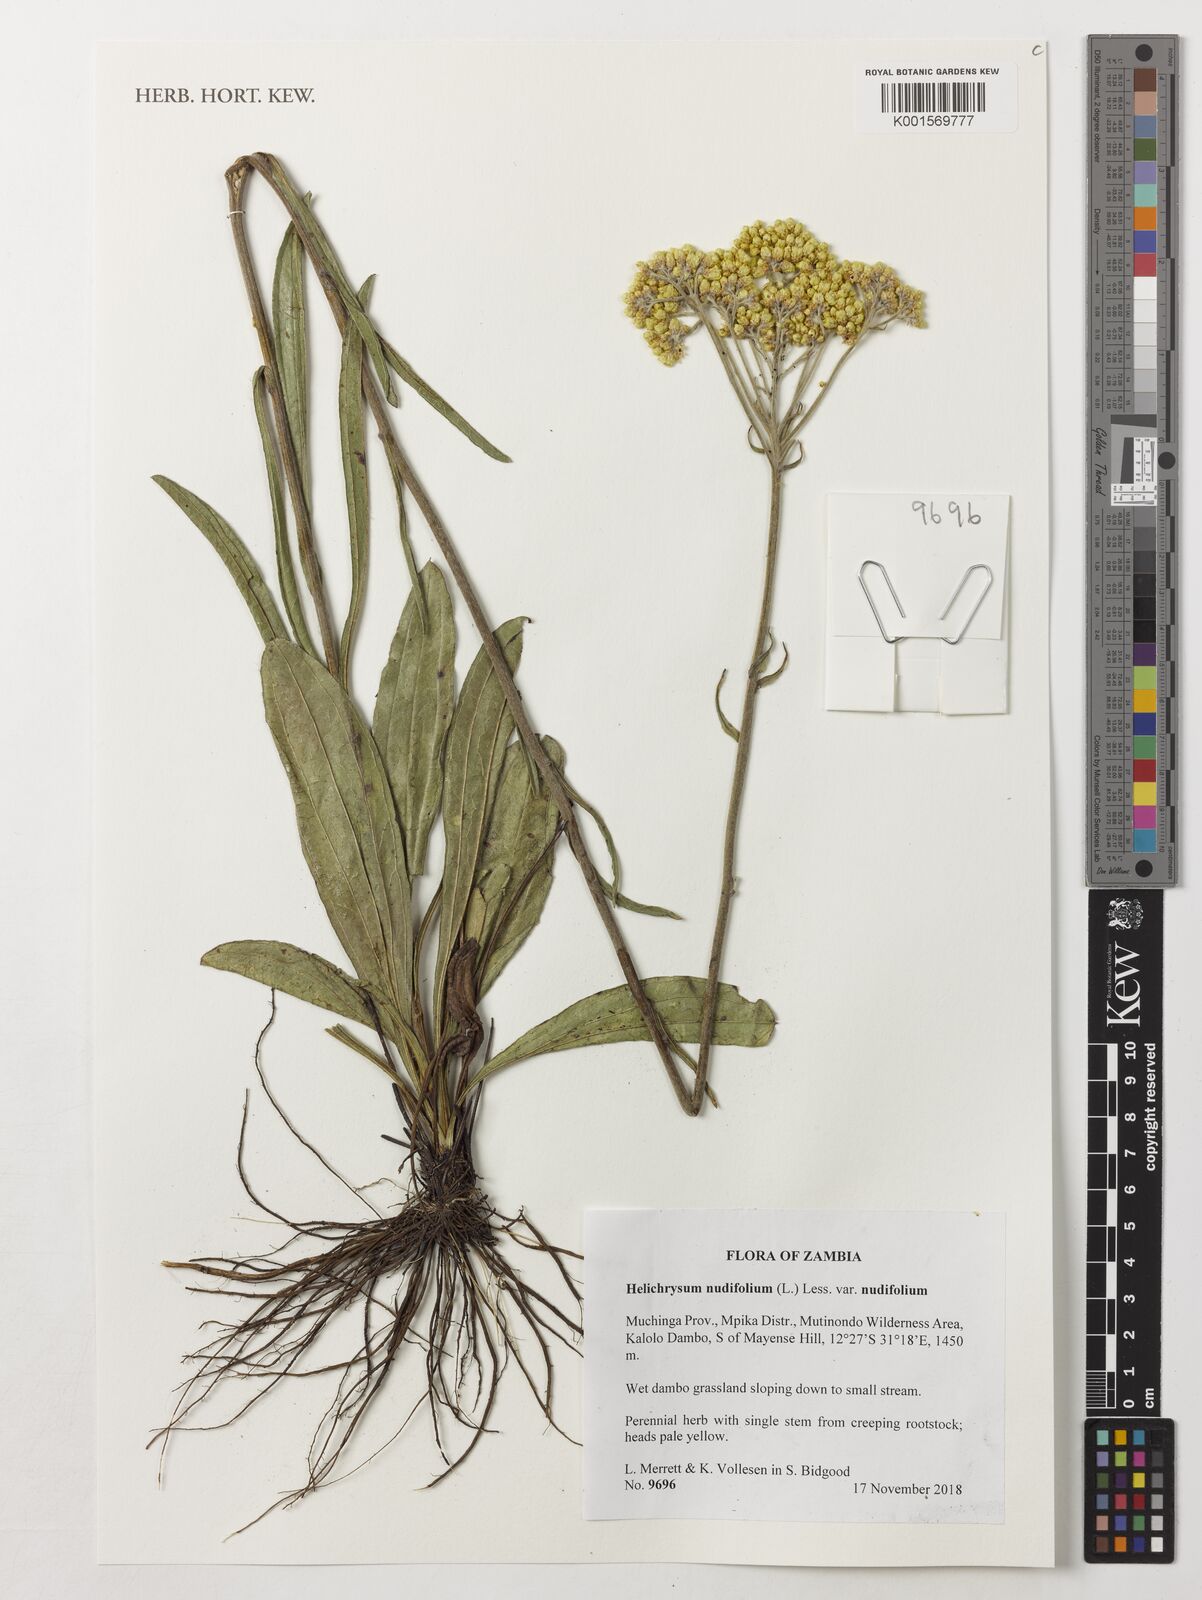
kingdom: Plantae
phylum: Tracheophyta
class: Magnoliopsida
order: Asterales
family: Asteraceae
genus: Helichrysum
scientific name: Helichrysum nudifolium
